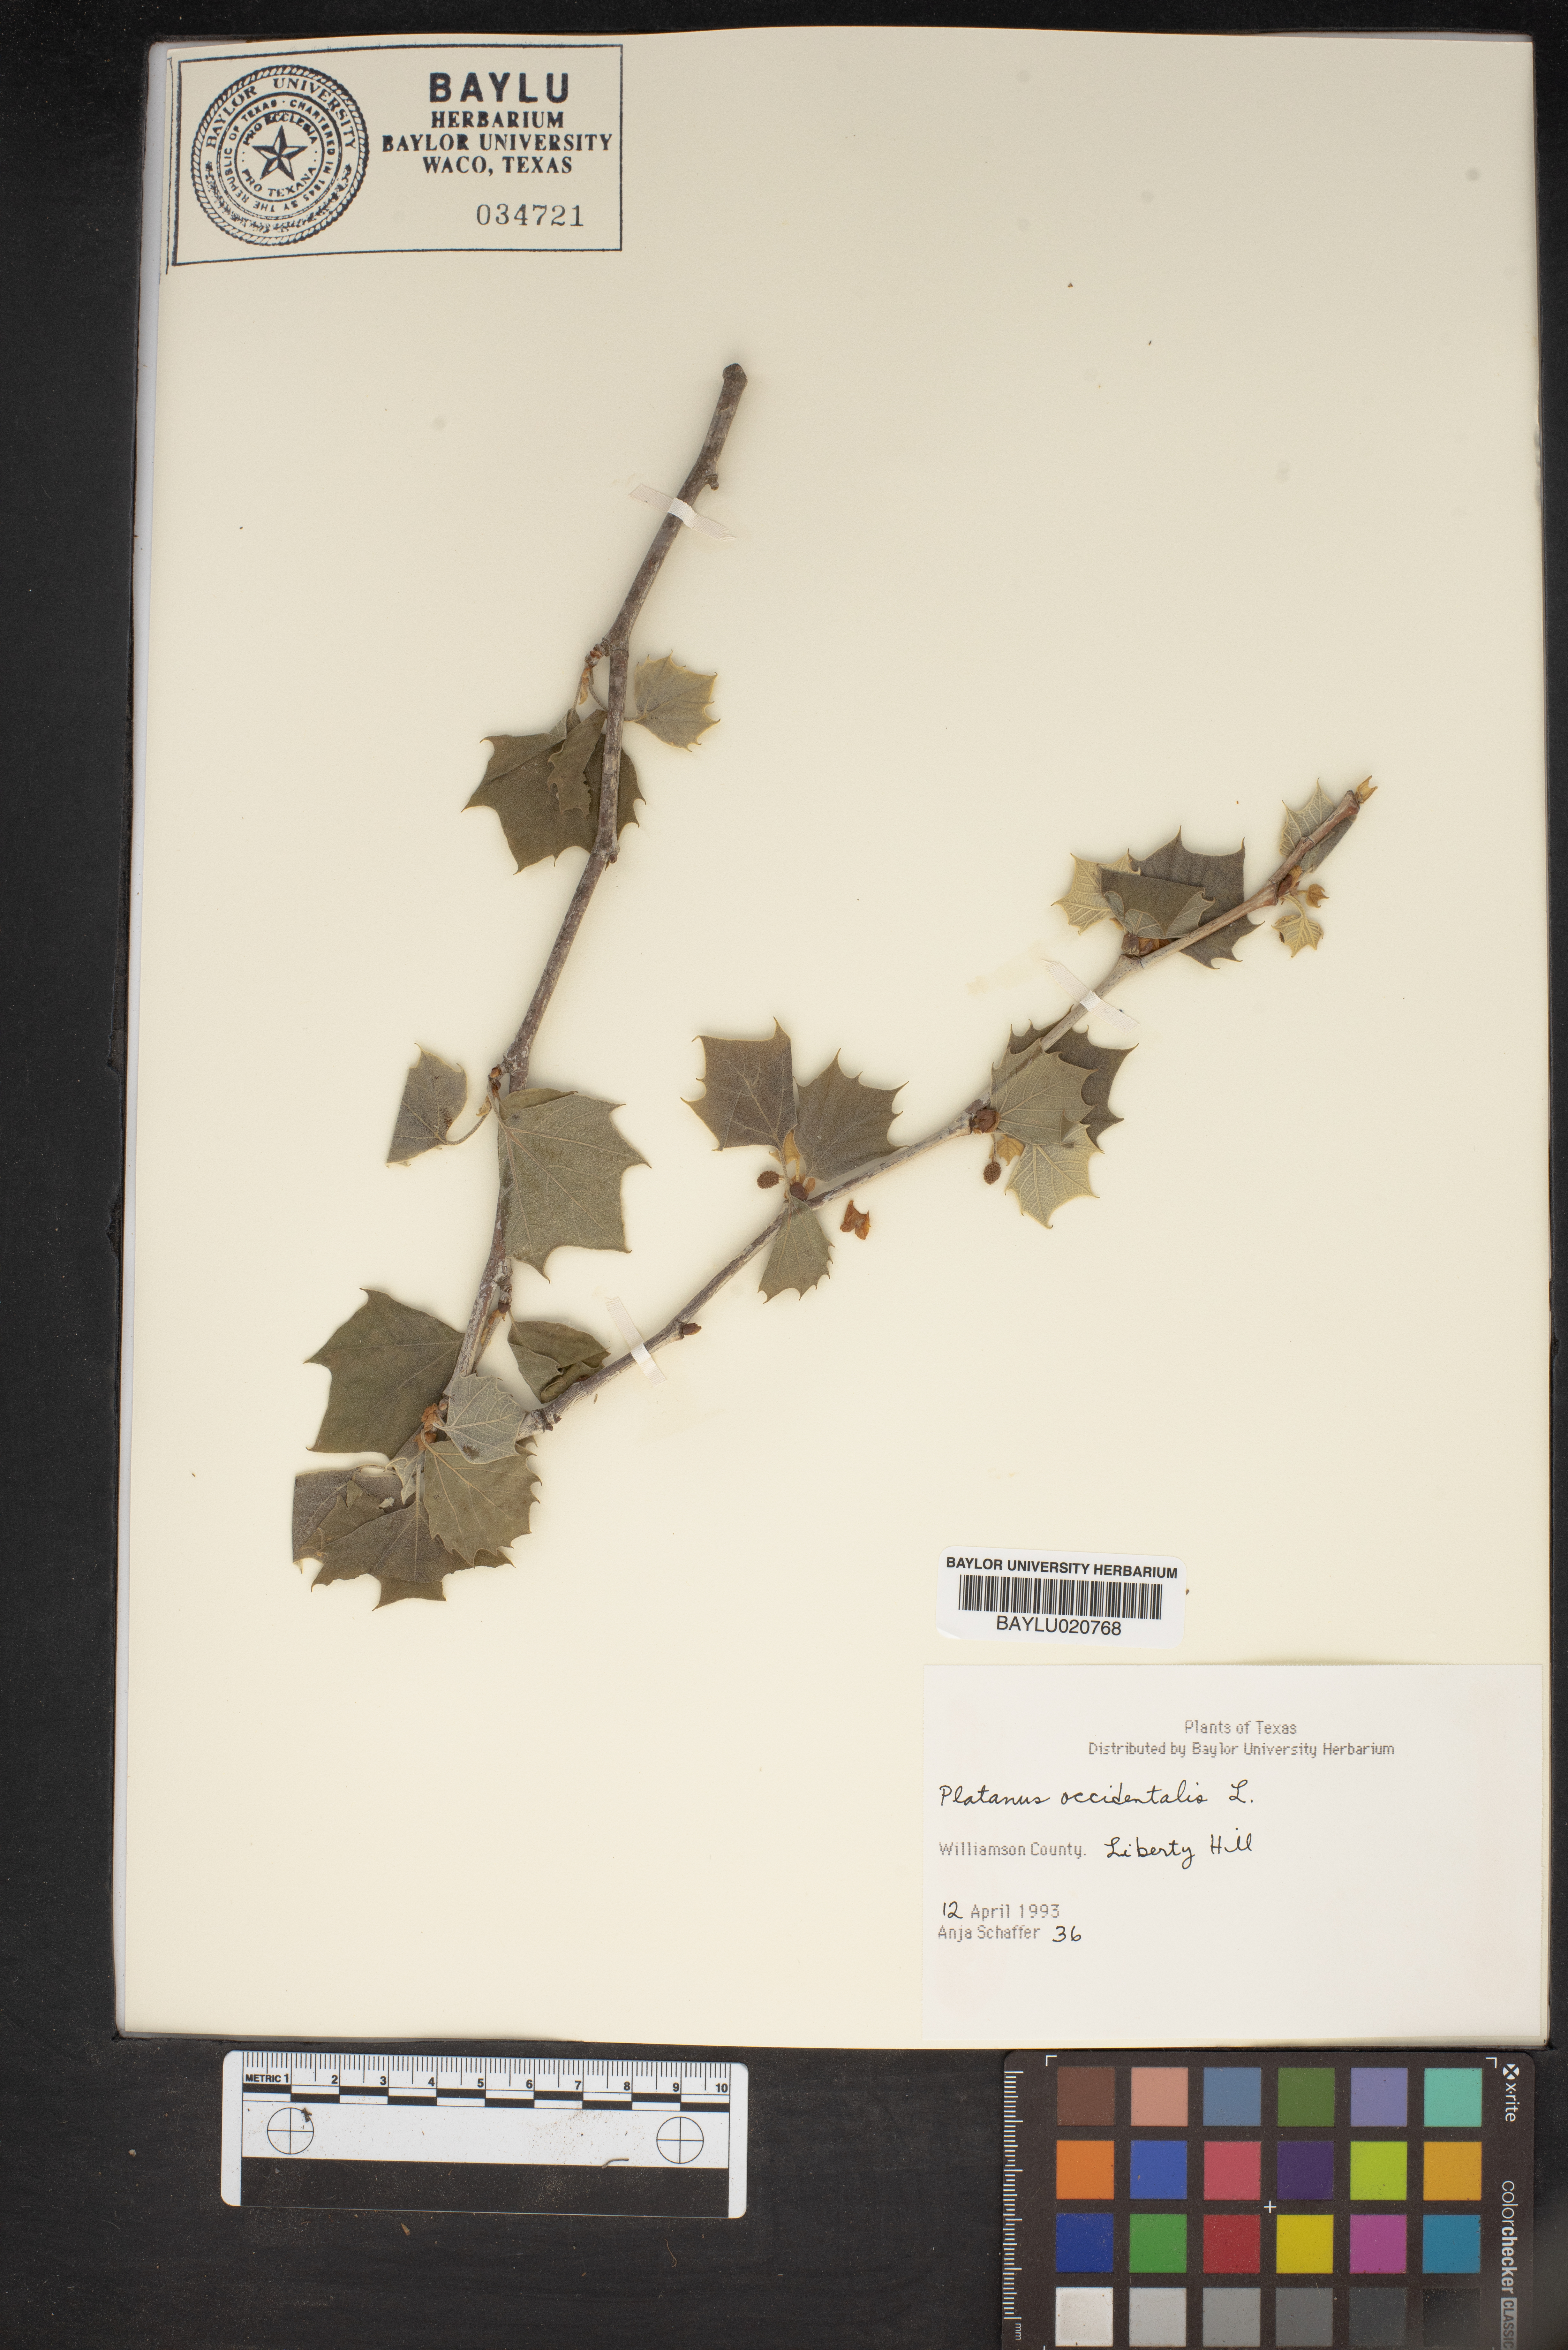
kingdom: Plantae
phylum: Tracheophyta
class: Magnoliopsida
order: Proteales
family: Platanaceae
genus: Platanus
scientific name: Platanus occidentalis
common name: American sycamore
